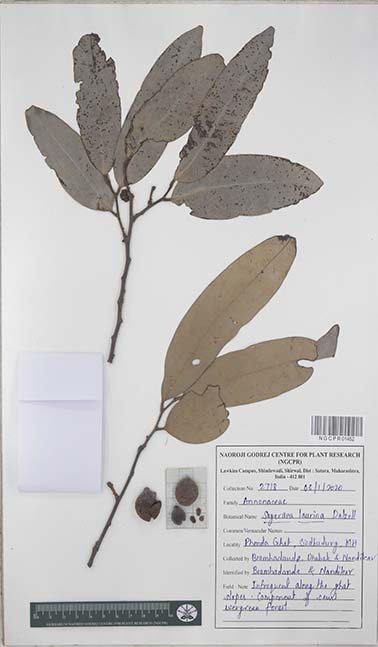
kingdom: Plantae
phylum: Tracheophyta
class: Magnoliopsida
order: Magnoliales
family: Annonaceae
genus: Sageraea
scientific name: Sageraea laurina
